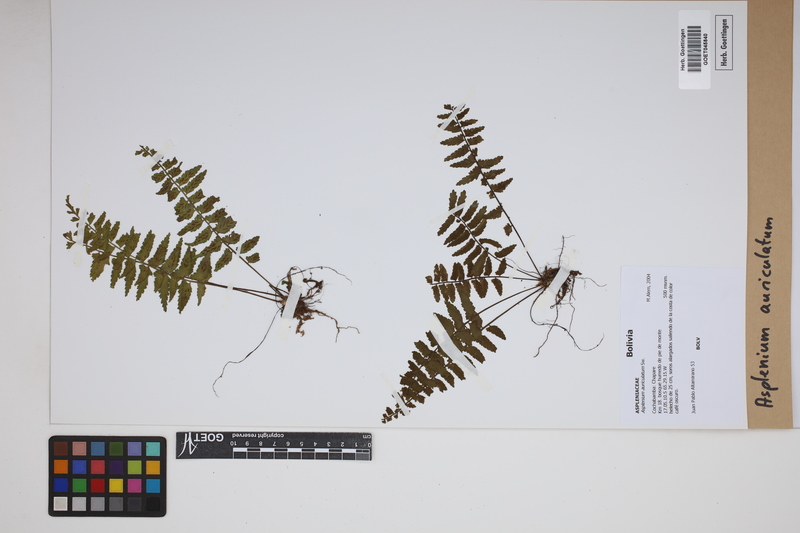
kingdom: Plantae
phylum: Tracheophyta
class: Polypodiopsida
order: Polypodiales
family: Aspleniaceae
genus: Asplenium
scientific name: Asplenium auriculatum
